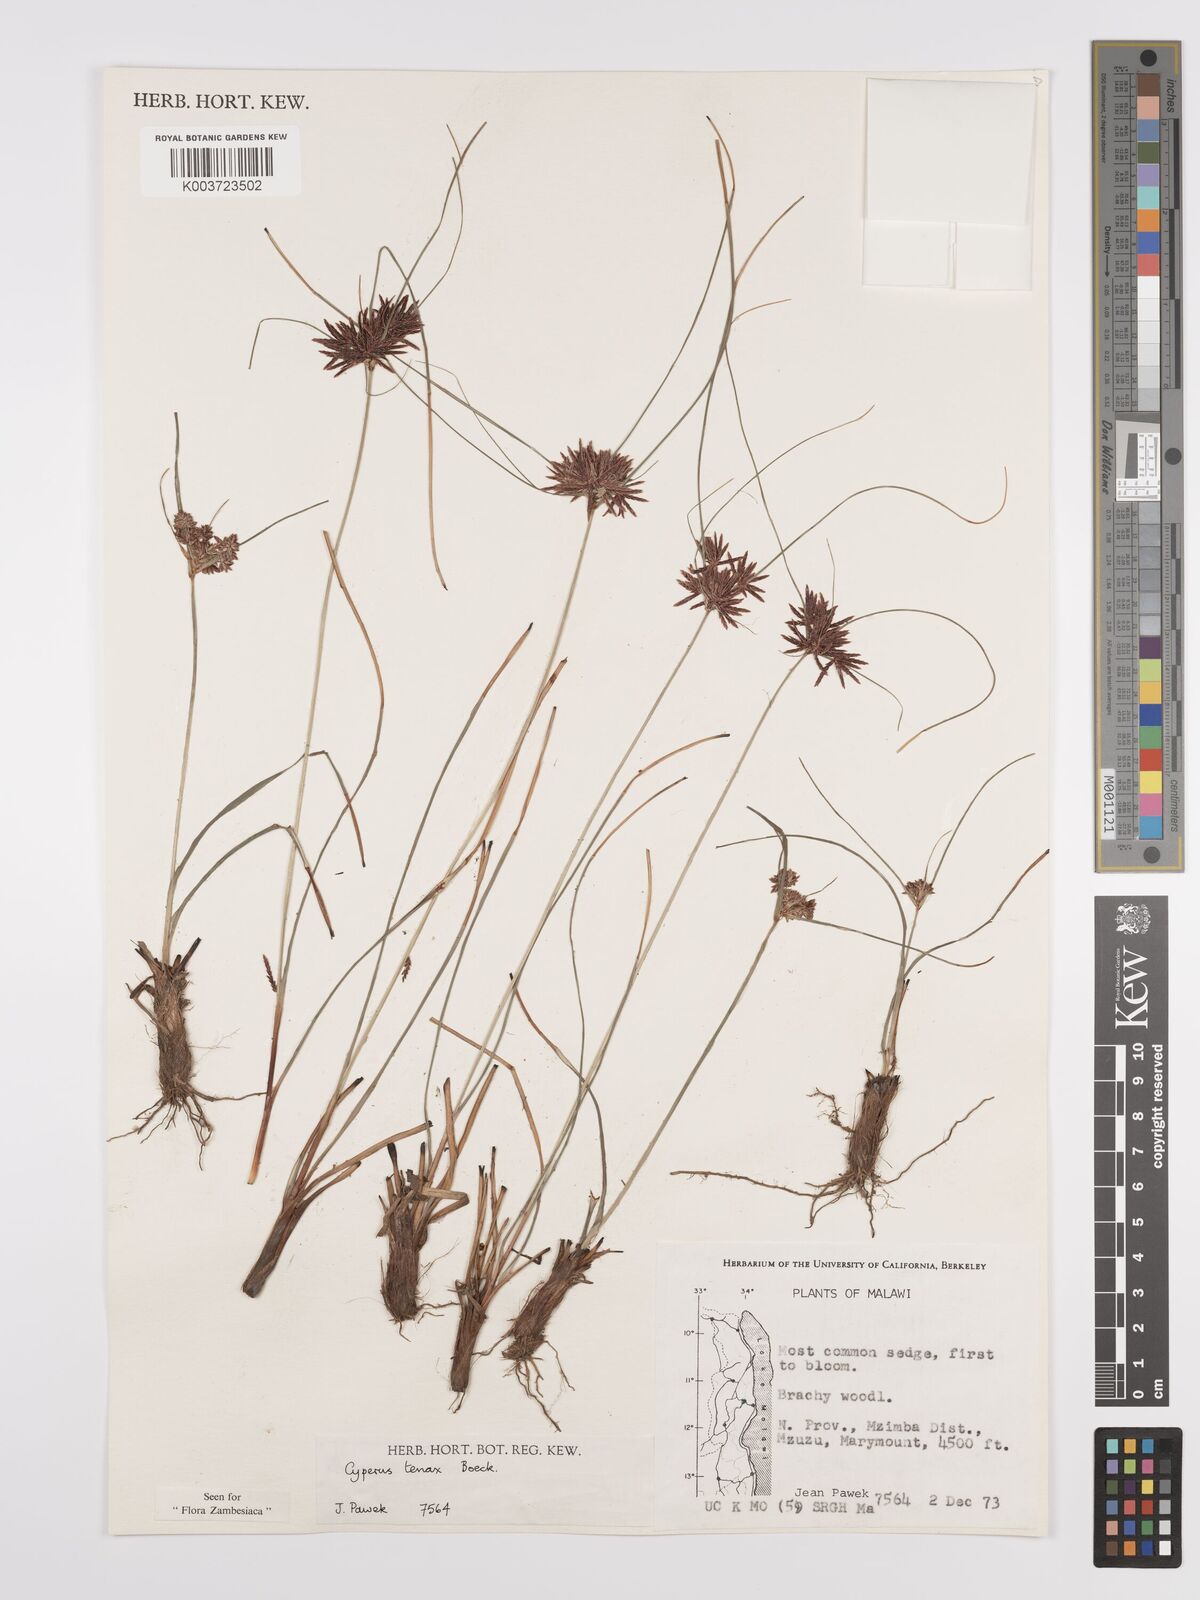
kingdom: Plantae
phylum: Tracheophyta
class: Liliopsida
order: Poales
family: Cyperaceae
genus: Cyperus
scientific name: Cyperus tenax
